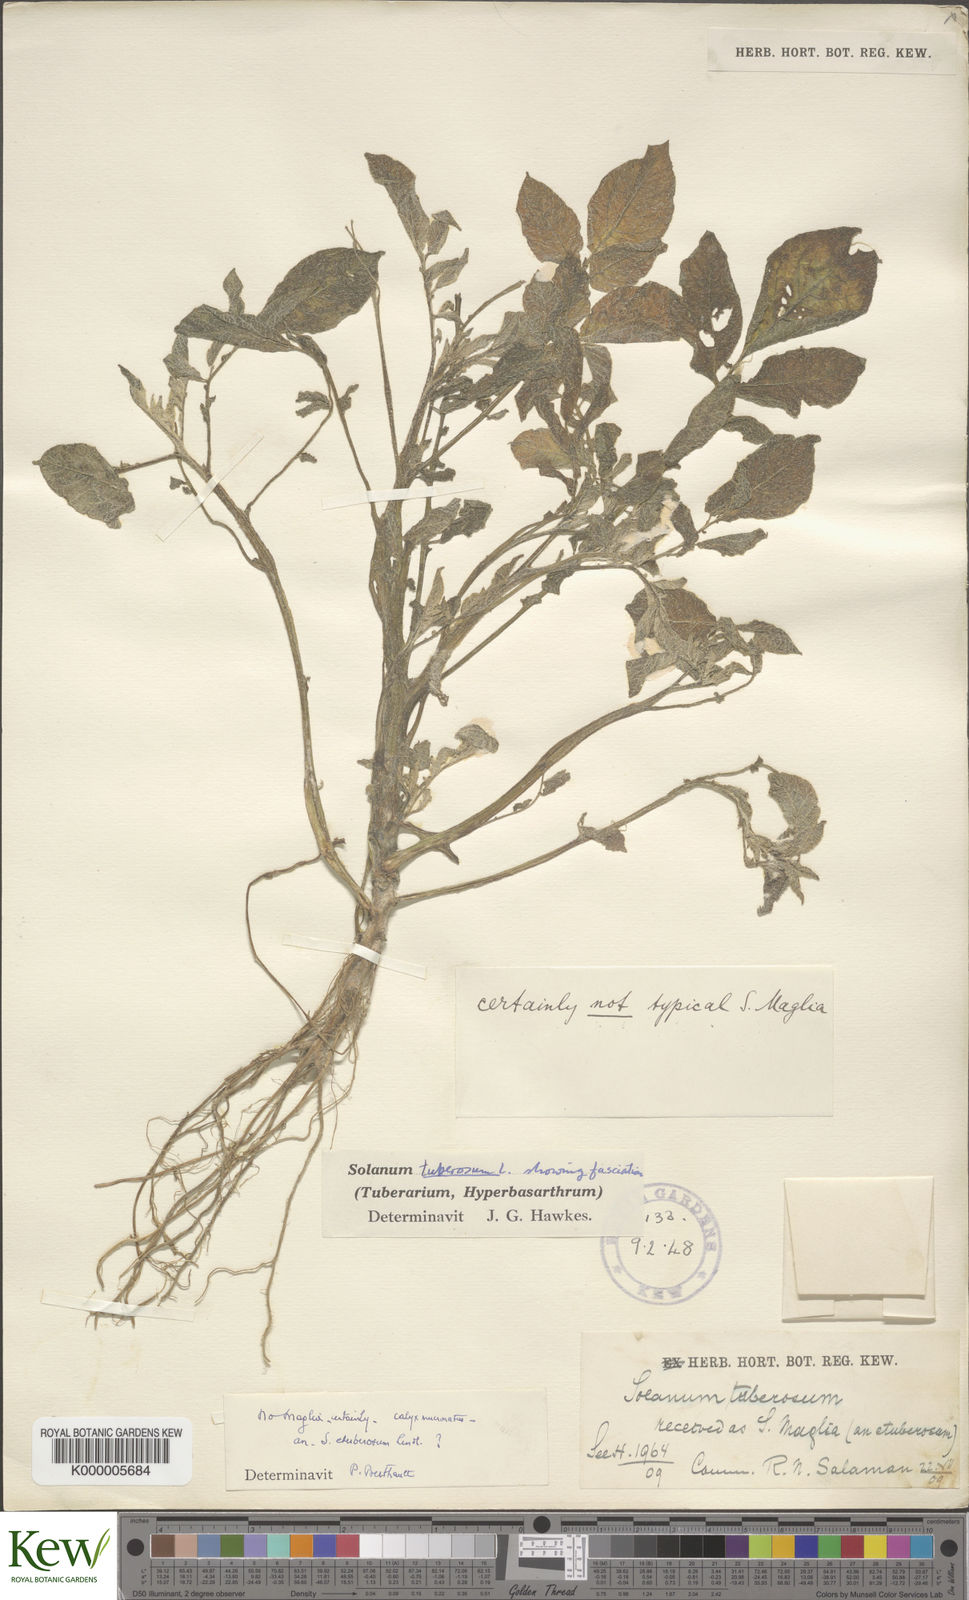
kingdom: Plantae
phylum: Tracheophyta
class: Magnoliopsida
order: Solanales
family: Solanaceae
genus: Solanum
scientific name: Solanum tuberosum
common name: Potato
